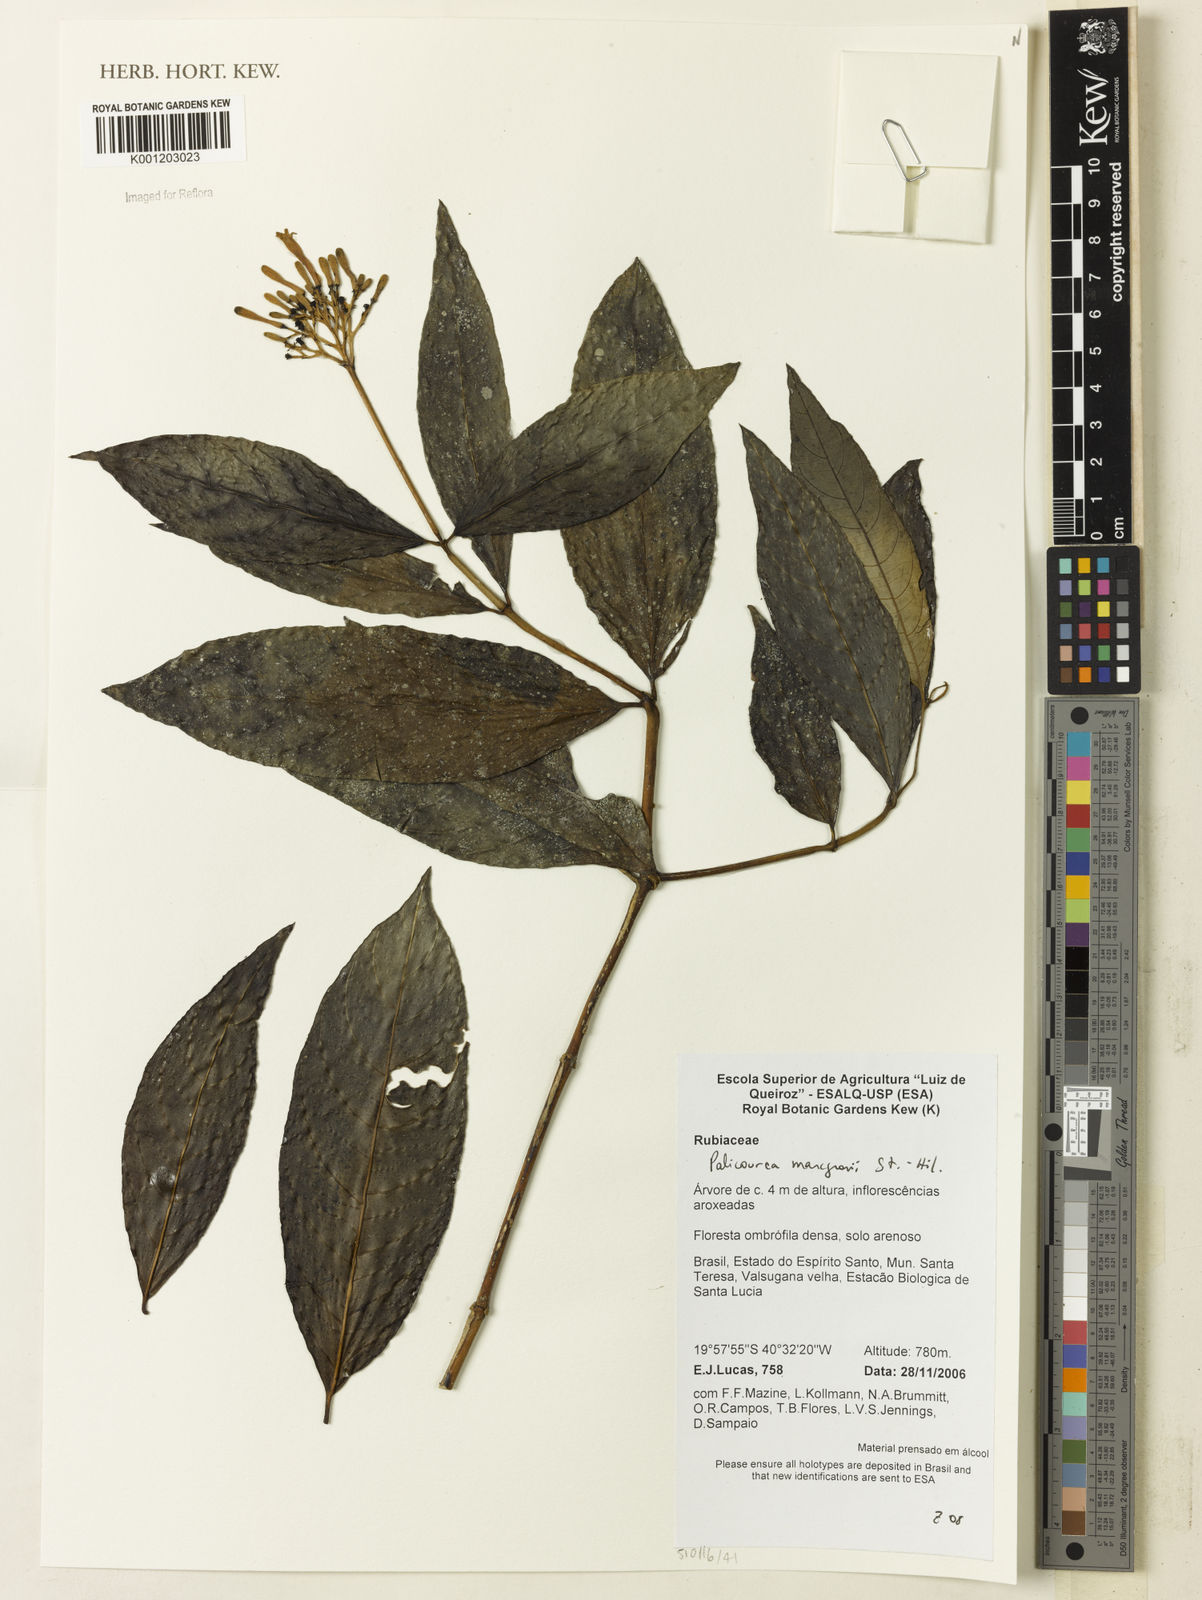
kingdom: Plantae
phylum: Tracheophyta
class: Magnoliopsida
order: Gentianales
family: Rubiaceae
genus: Palicourea
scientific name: Palicourea marcgravii
